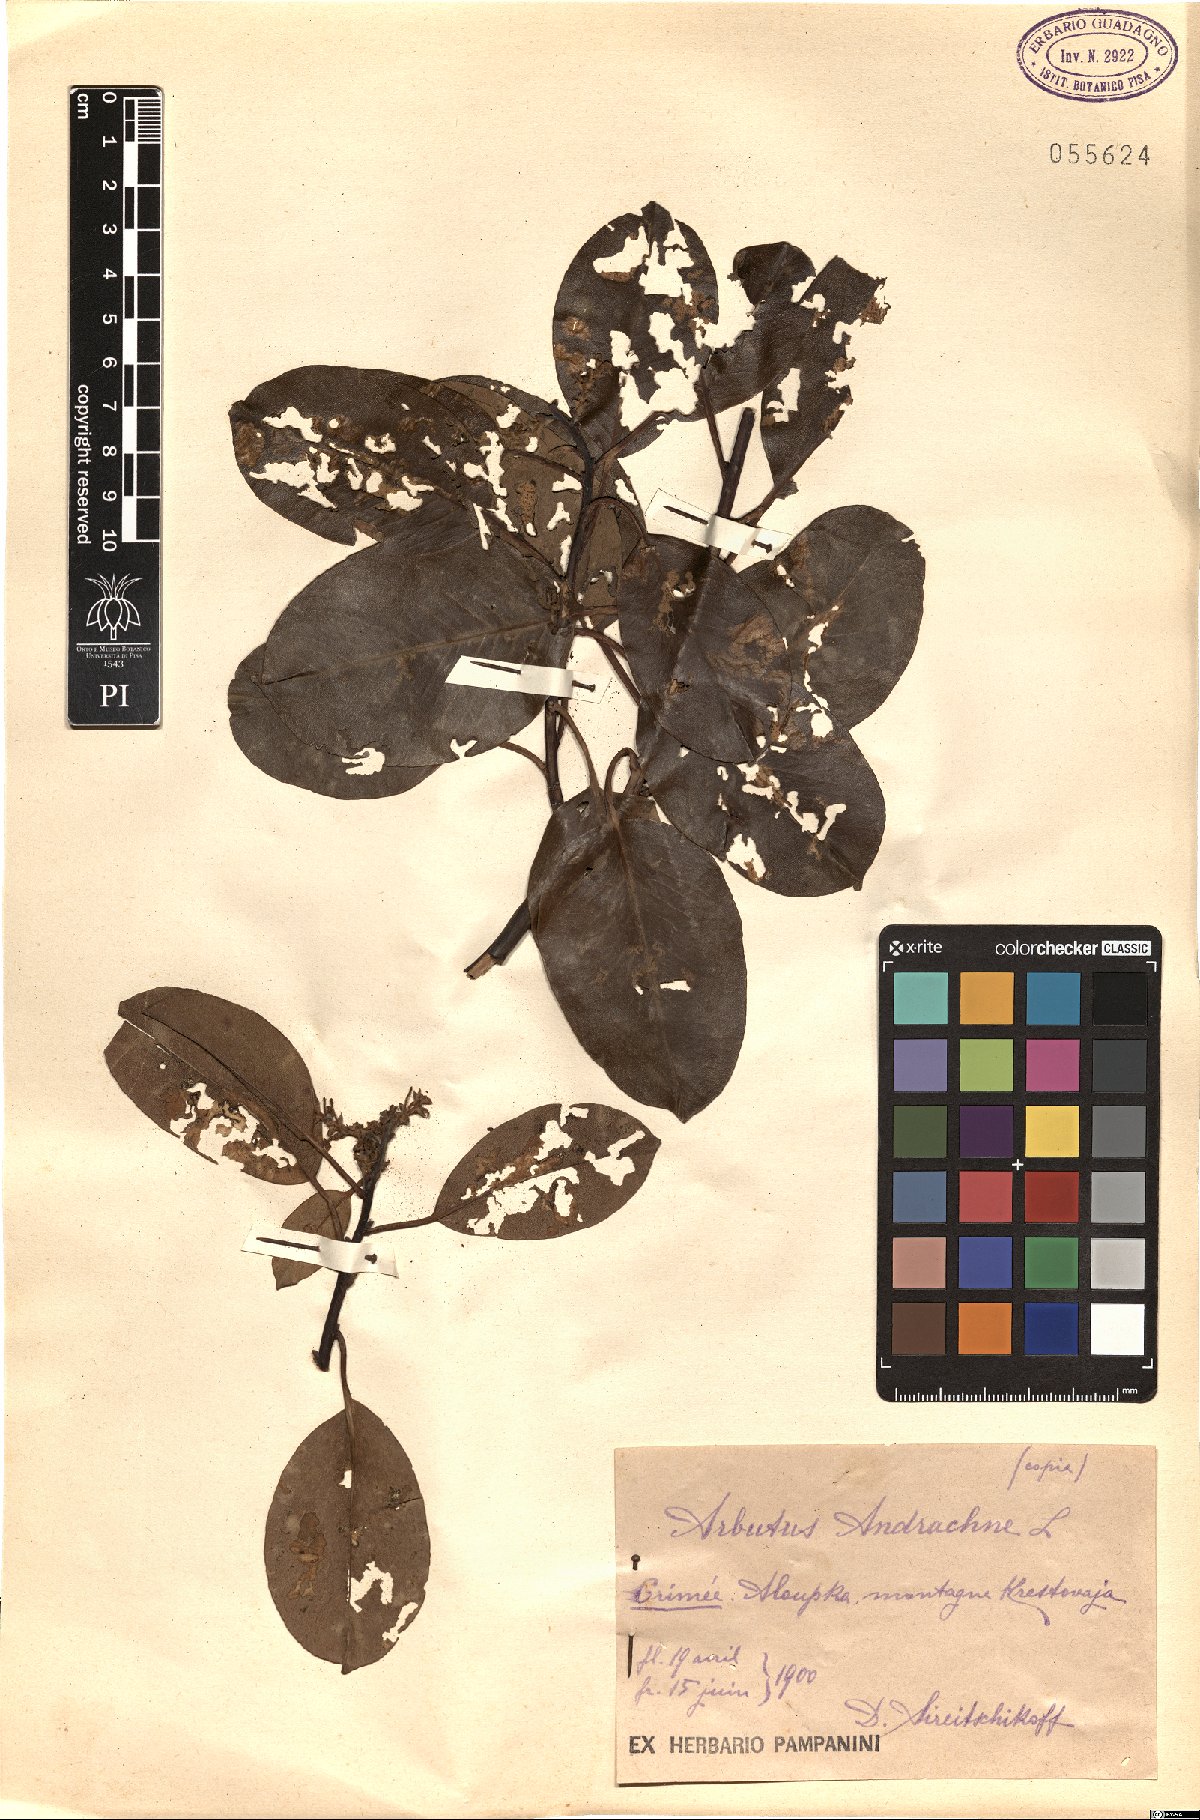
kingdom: Plantae
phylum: Tracheophyta
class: Magnoliopsida
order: Ericales
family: Ericaceae
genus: Arbutus
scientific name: Arbutus andrachne
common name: Greek strawberry tree
